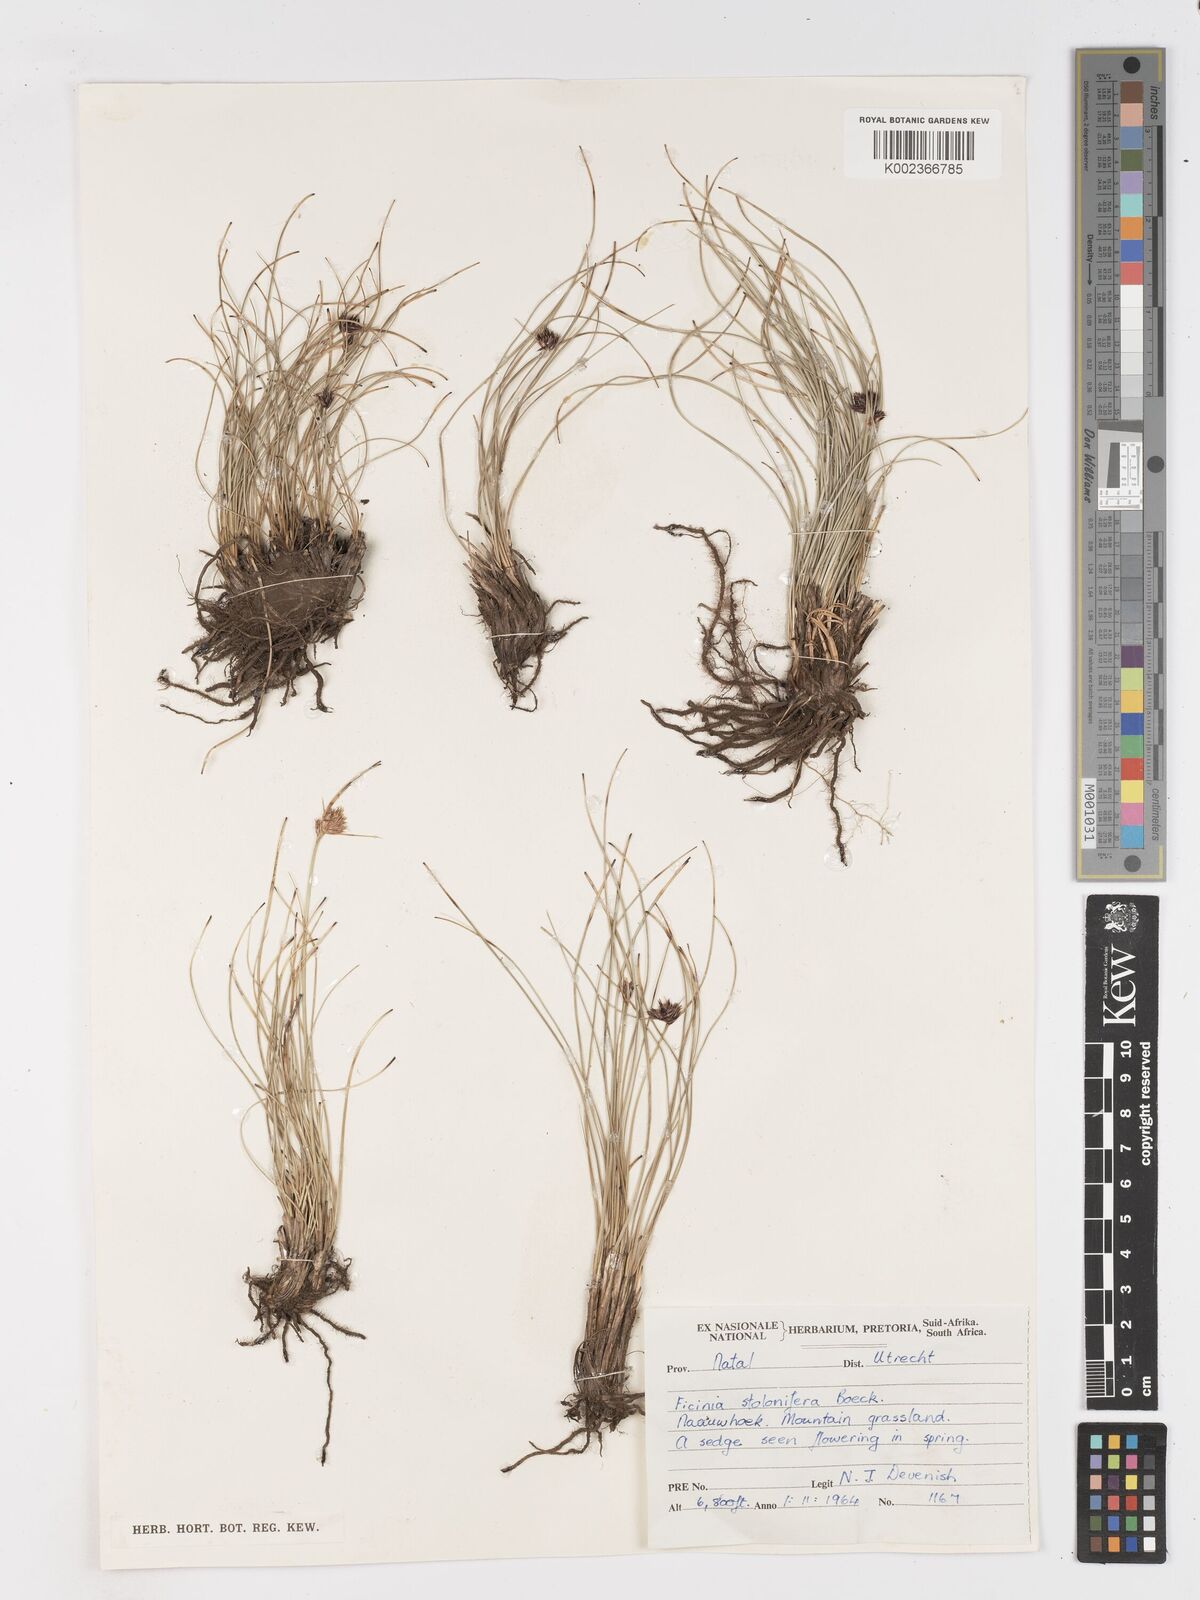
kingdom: Plantae
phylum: Tracheophyta
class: Liliopsida
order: Poales
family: Cyperaceae
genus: Dracoscirpoides
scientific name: Dracoscirpoides falsa
